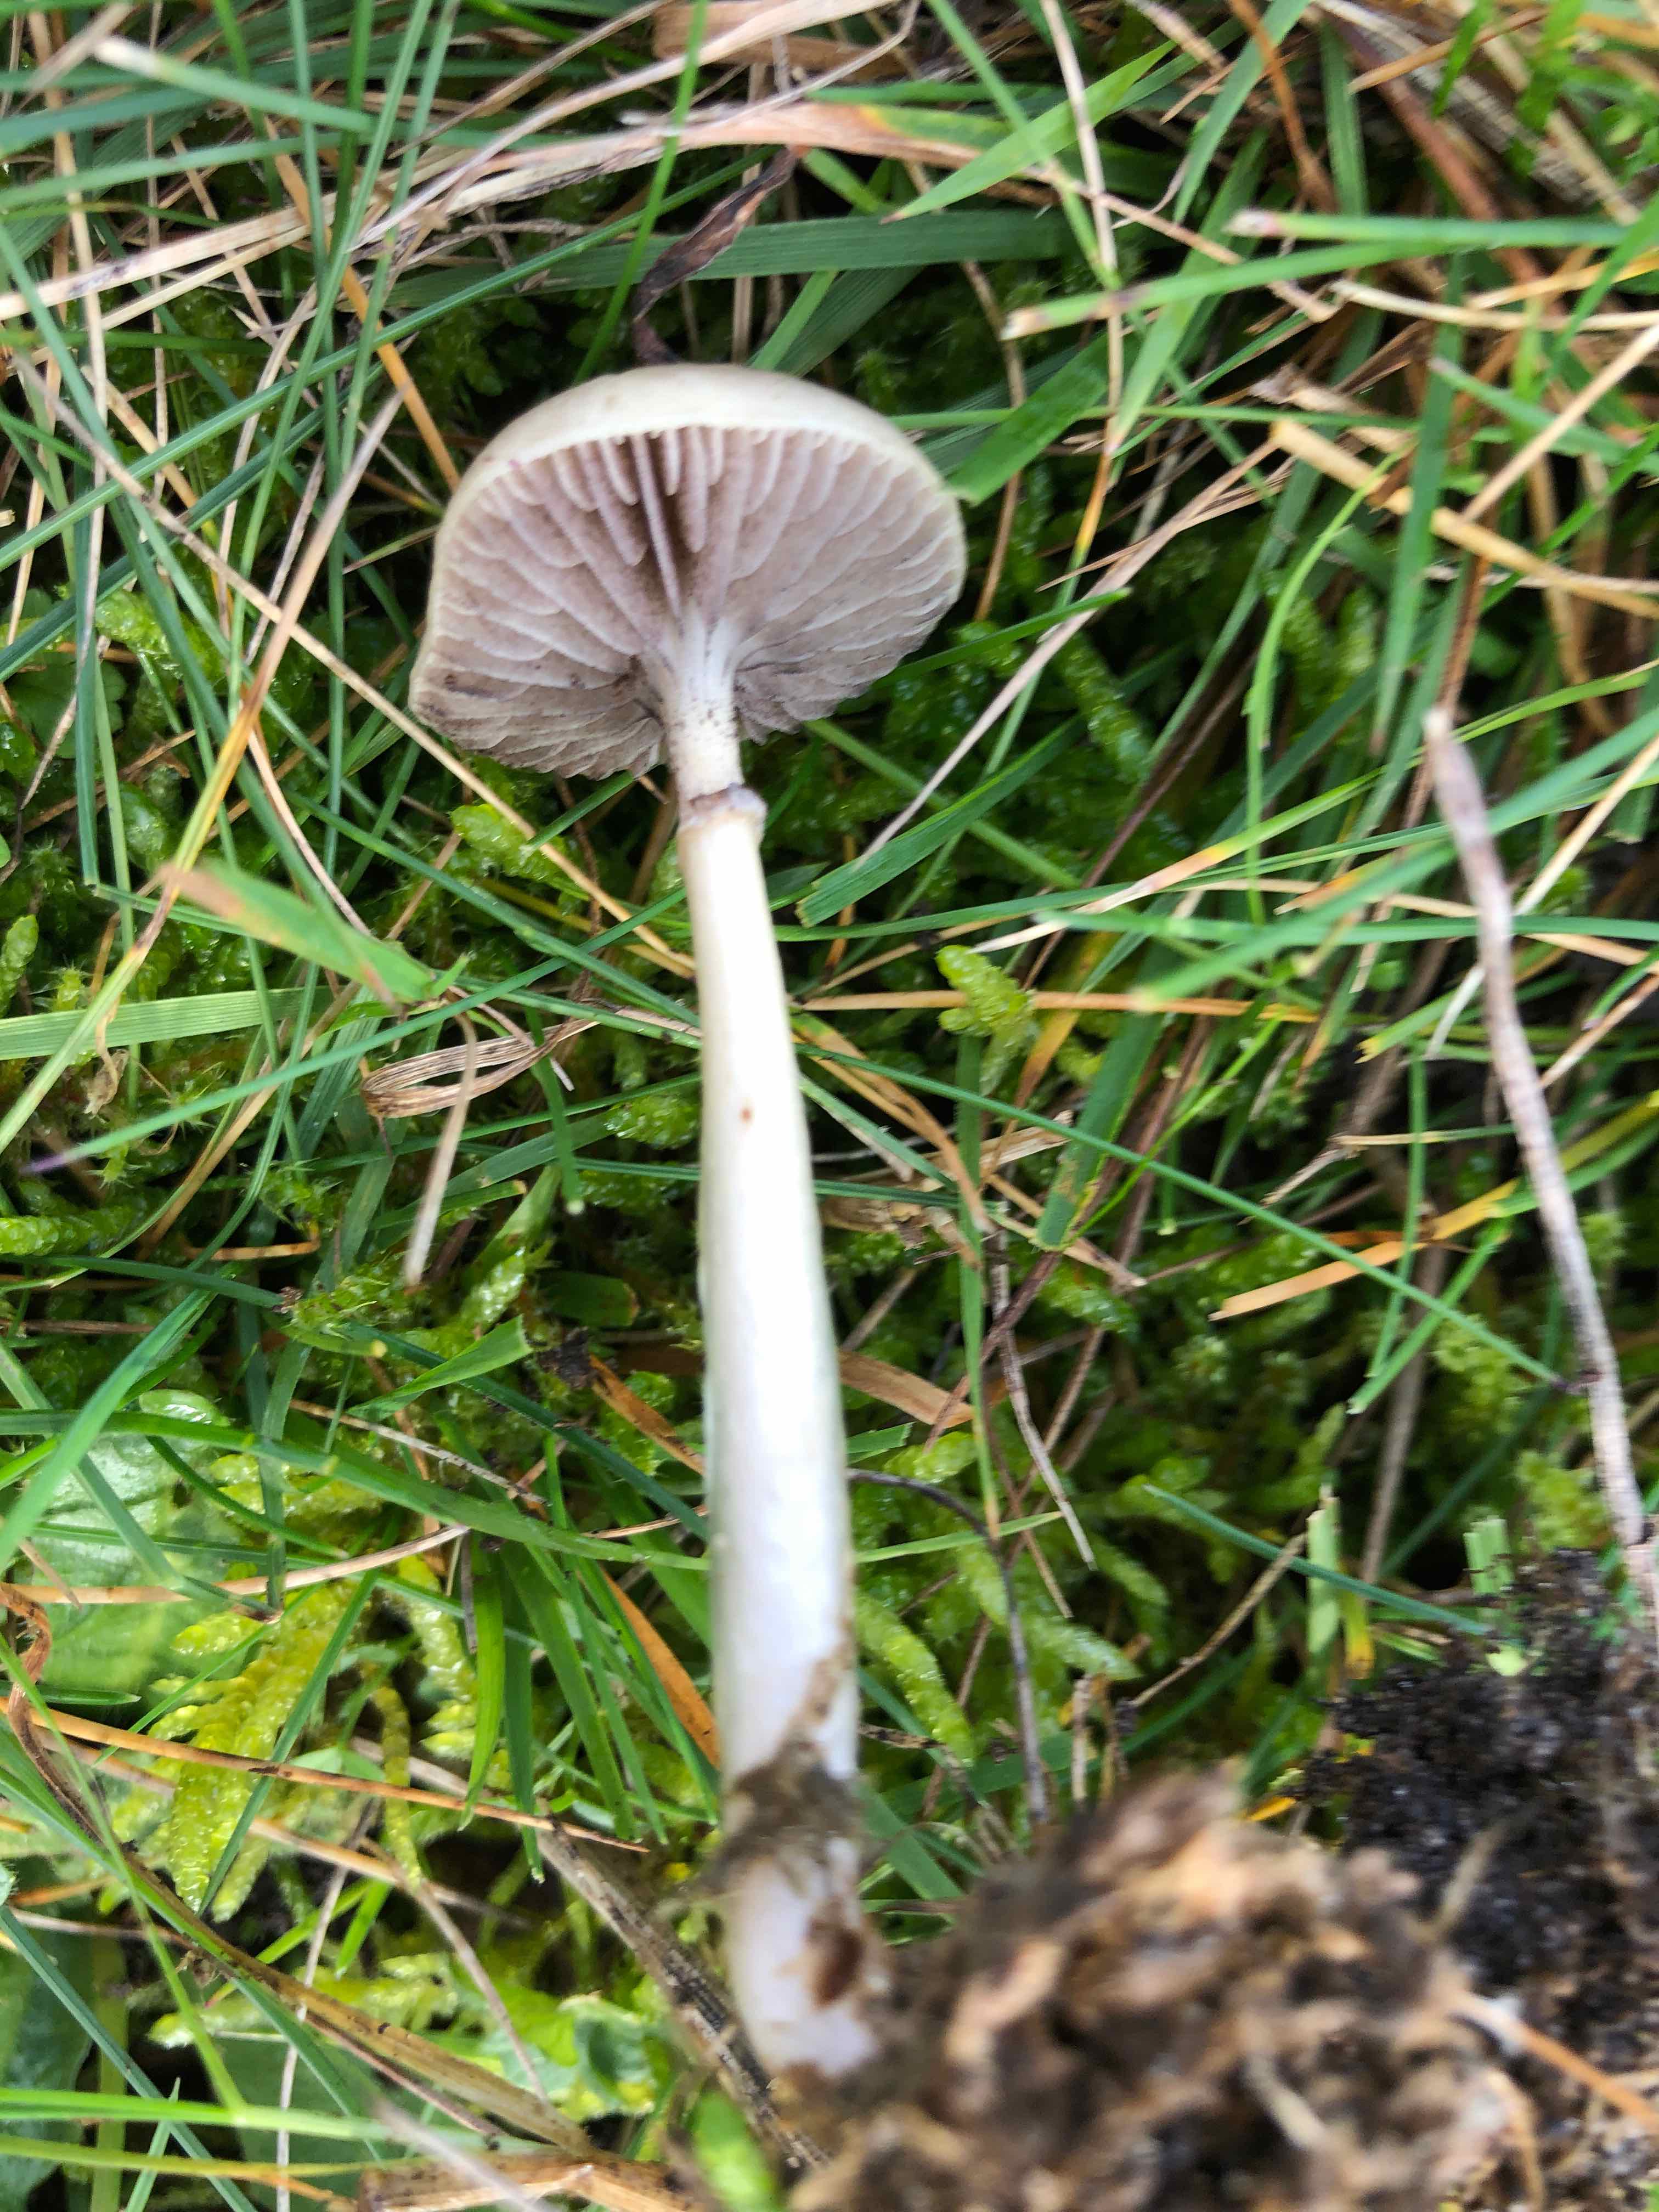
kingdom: Fungi
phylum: Basidiomycota
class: Agaricomycetes
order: Agaricales
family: Strophariaceae
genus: Protostropharia
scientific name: Protostropharia
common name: bredblad
